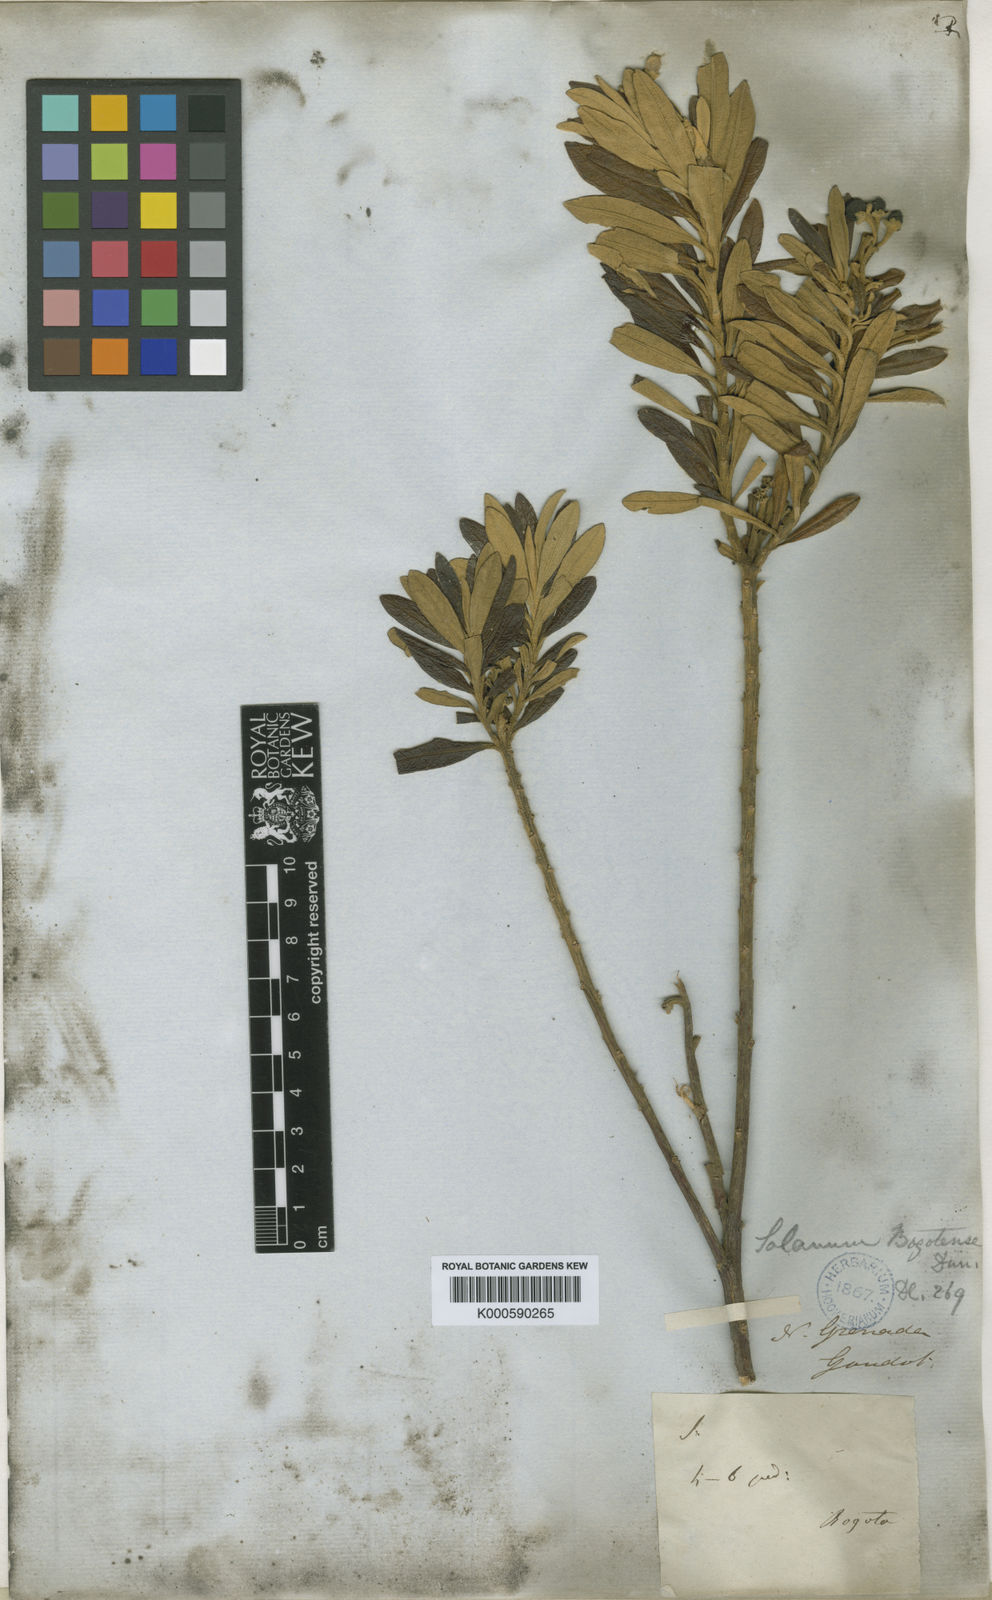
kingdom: Plantae
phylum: Tracheophyta
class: Magnoliopsida
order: Solanales
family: Solanaceae
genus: Solanum
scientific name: Solanum stenophyllum
